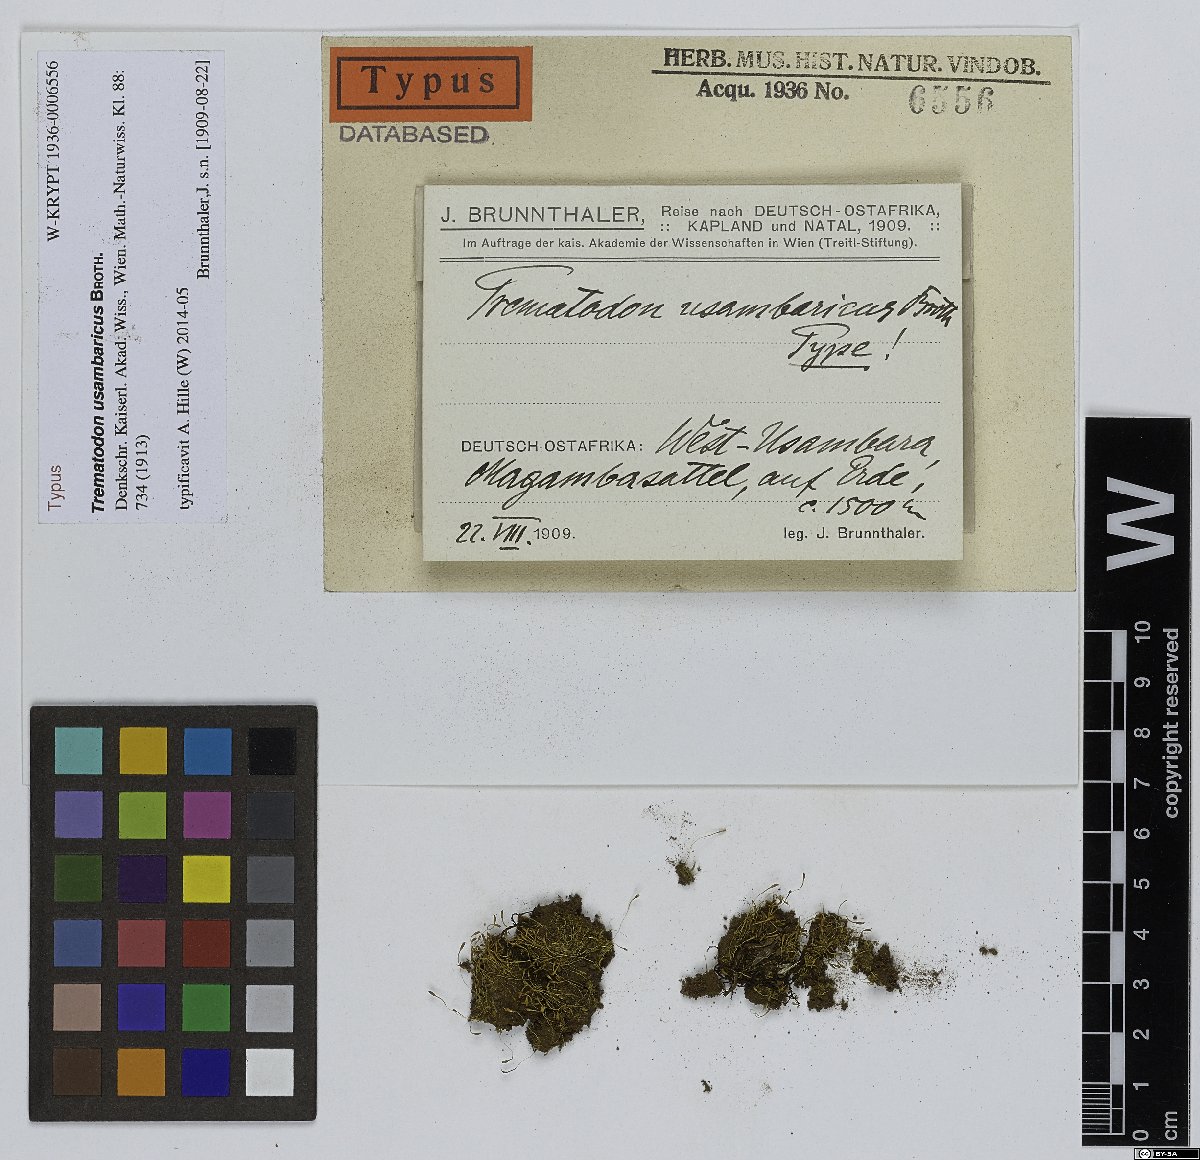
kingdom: Plantae
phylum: Bryophyta
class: Bryopsida
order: Dicranales
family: Bruchiaceae
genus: Trematodon
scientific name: Trematodon usambaricus
